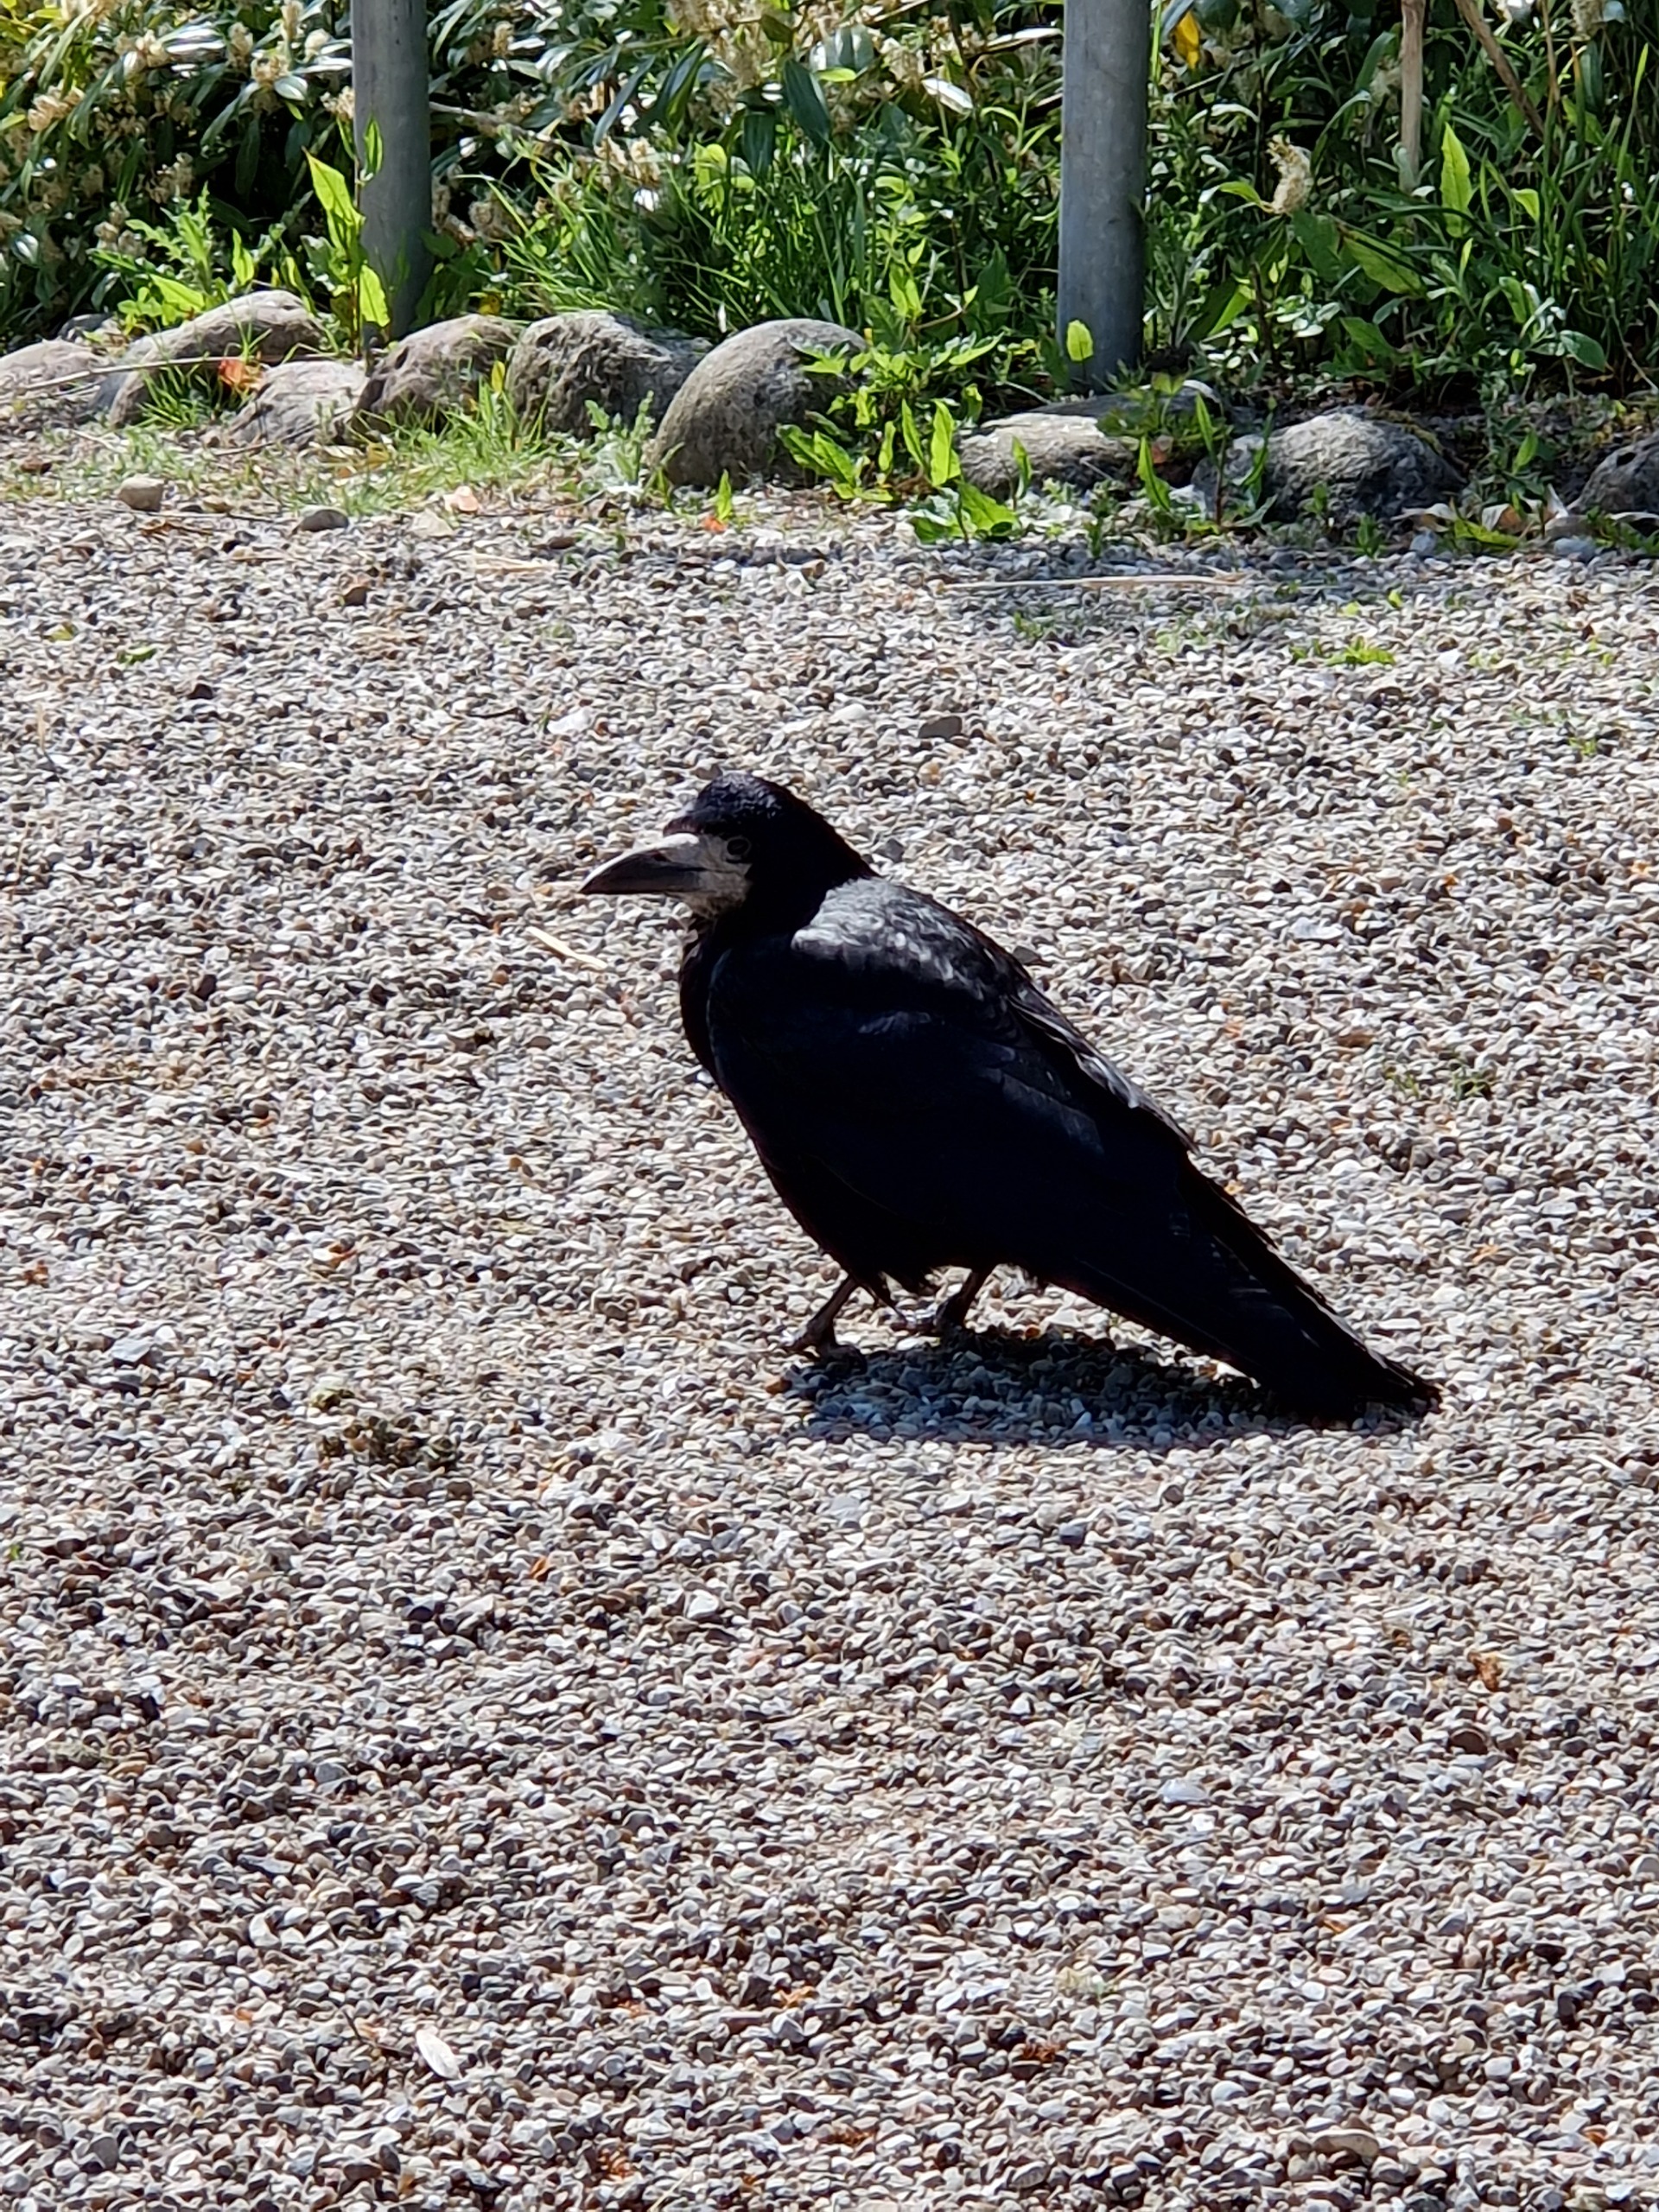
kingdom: Animalia
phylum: Chordata
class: Aves
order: Passeriformes
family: Corvidae
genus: Corvus
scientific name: Corvus frugilegus
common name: Råge
